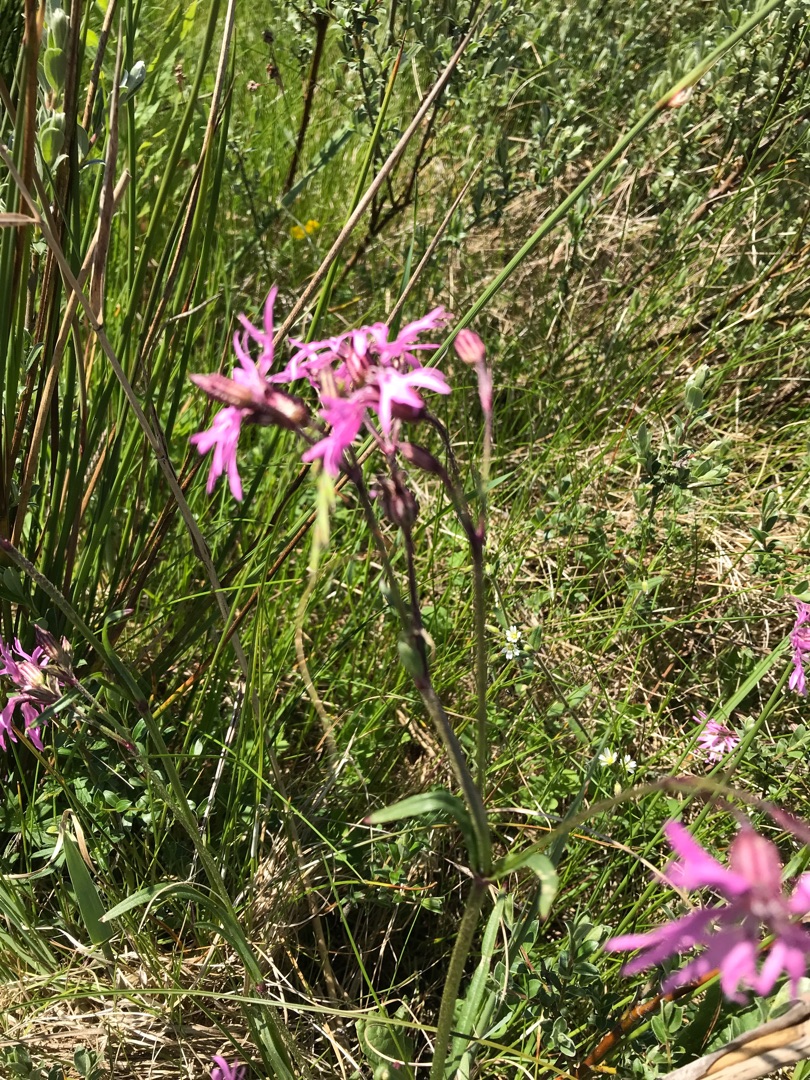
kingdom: Plantae
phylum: Tracheophyta
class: Magnoliopsida
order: Caryophyllales
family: Caryophyllaceae
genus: Silene
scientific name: Silene flos-cuculi
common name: Trævlekrone
